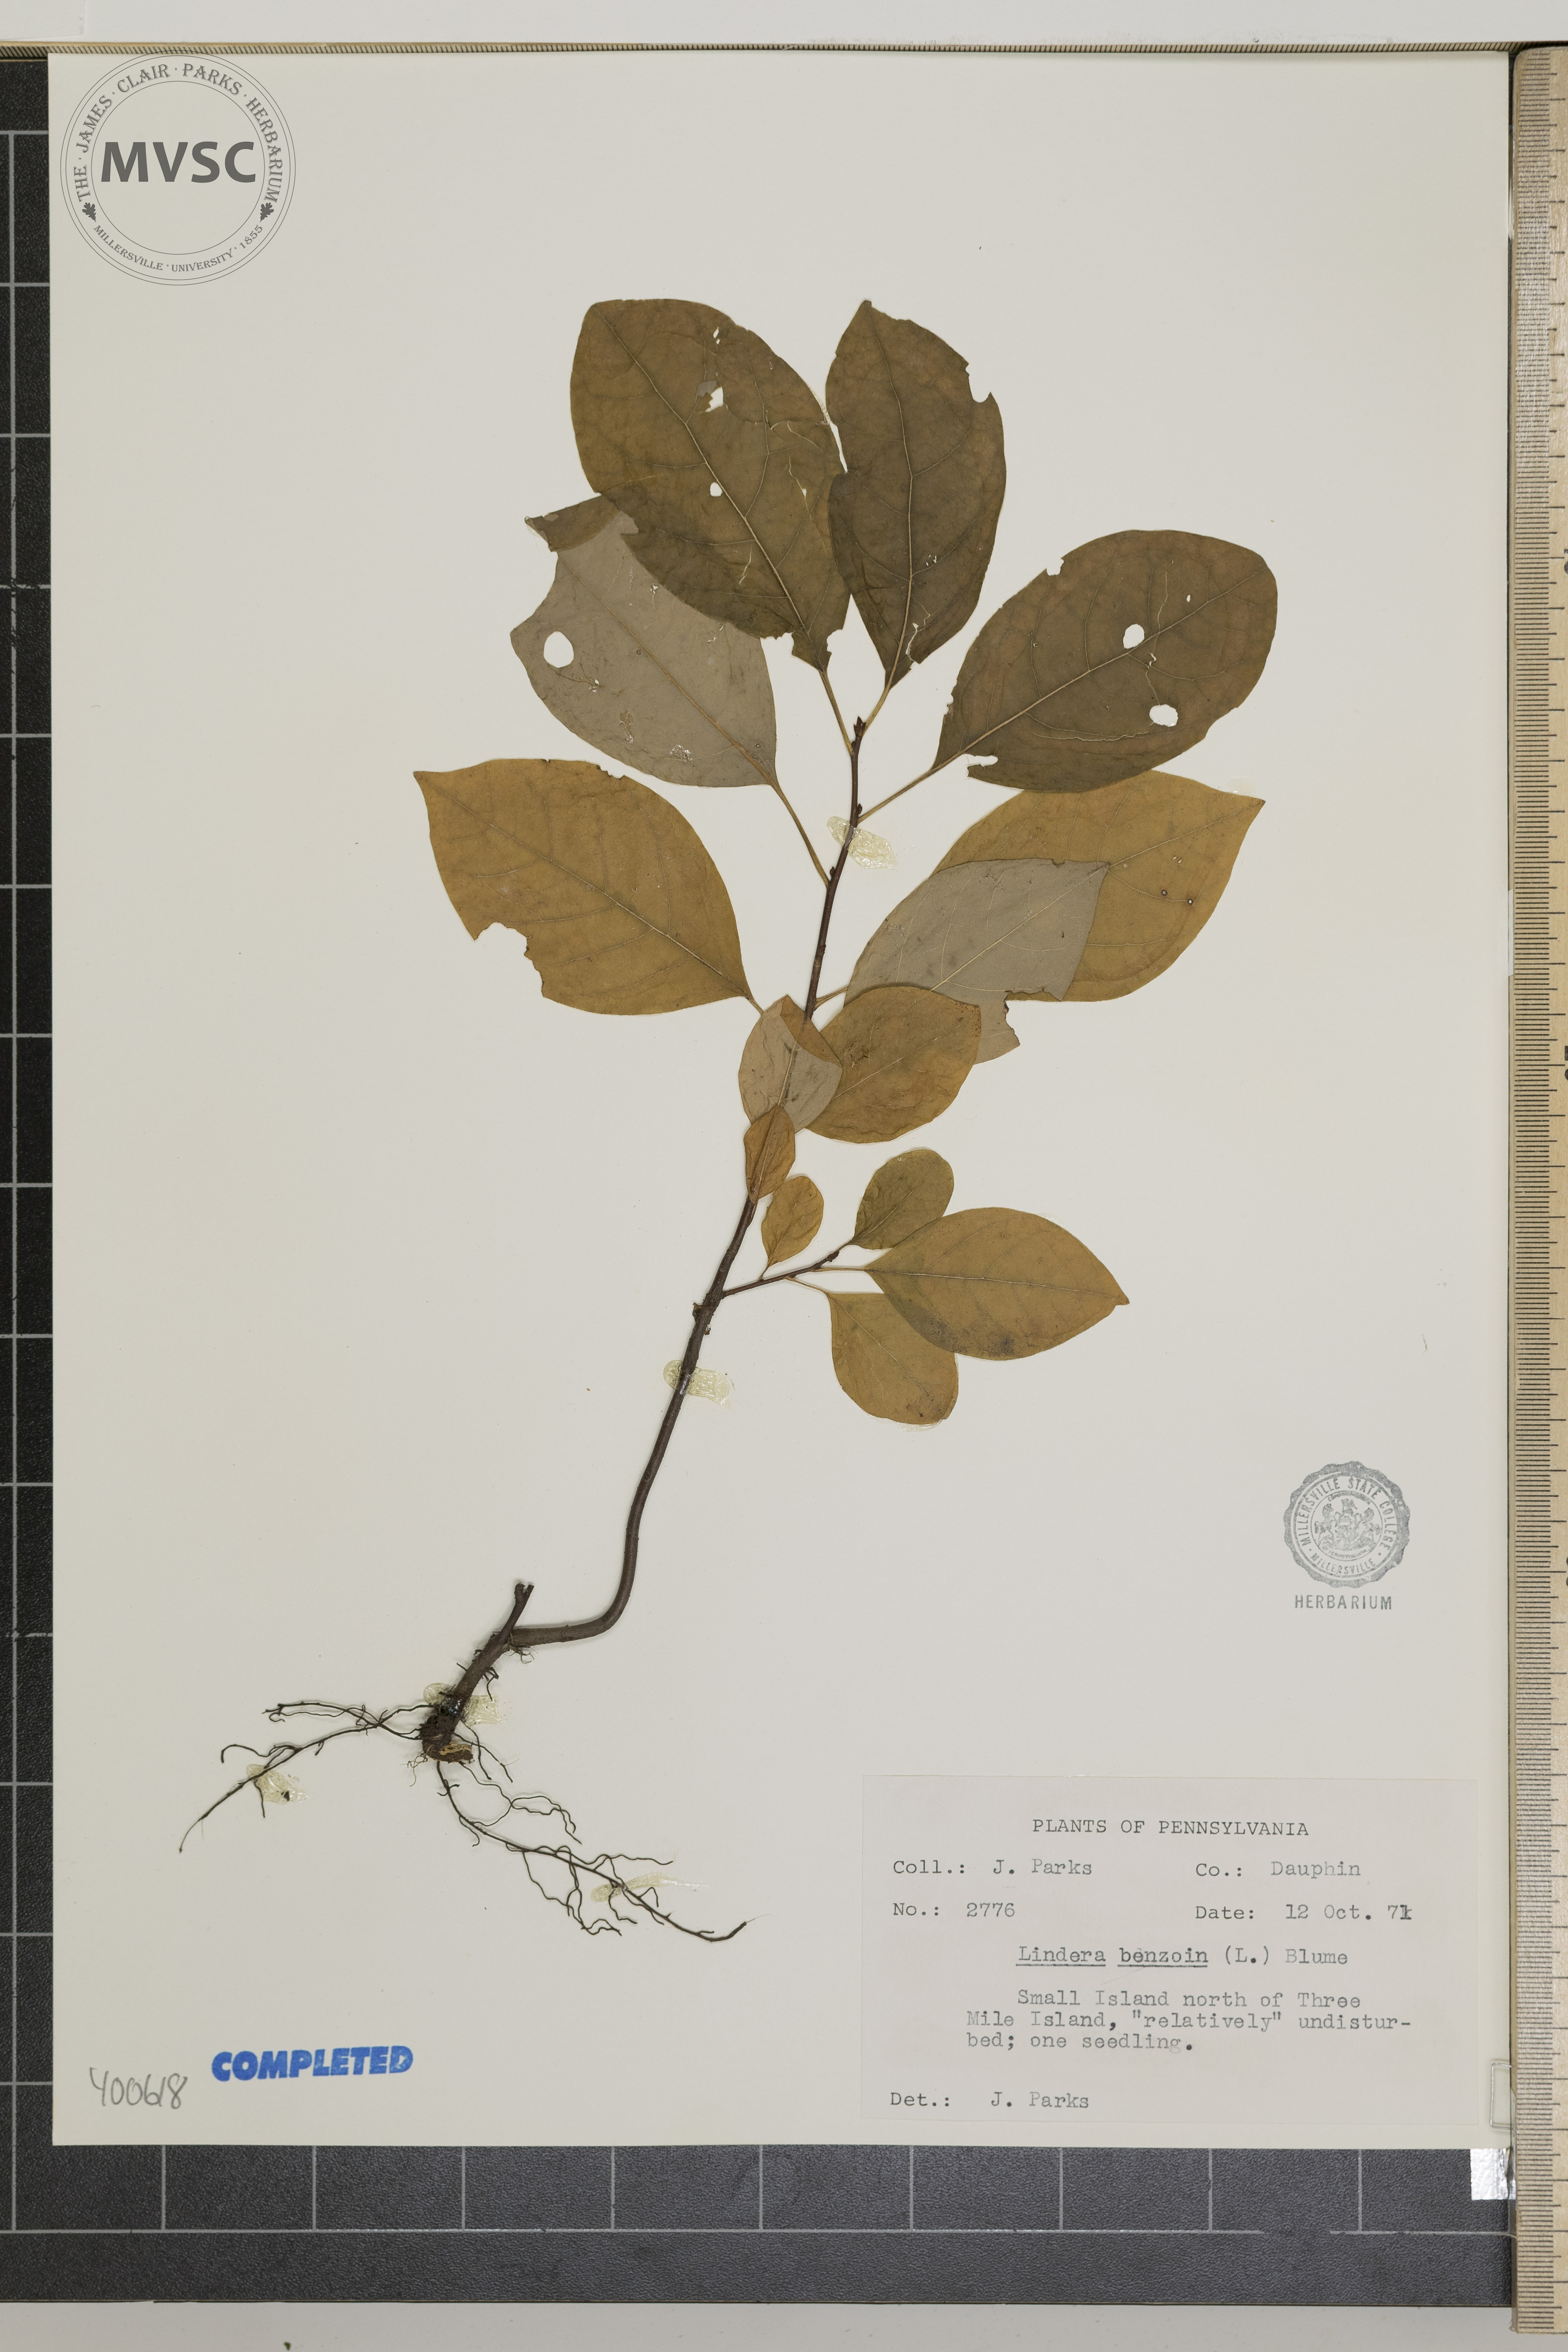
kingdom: Plantae
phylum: Tracheophyta
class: Magnoliopsida
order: Laurales
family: Lauraceae
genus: Lindera
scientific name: Lindera benzoin
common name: spicebush
